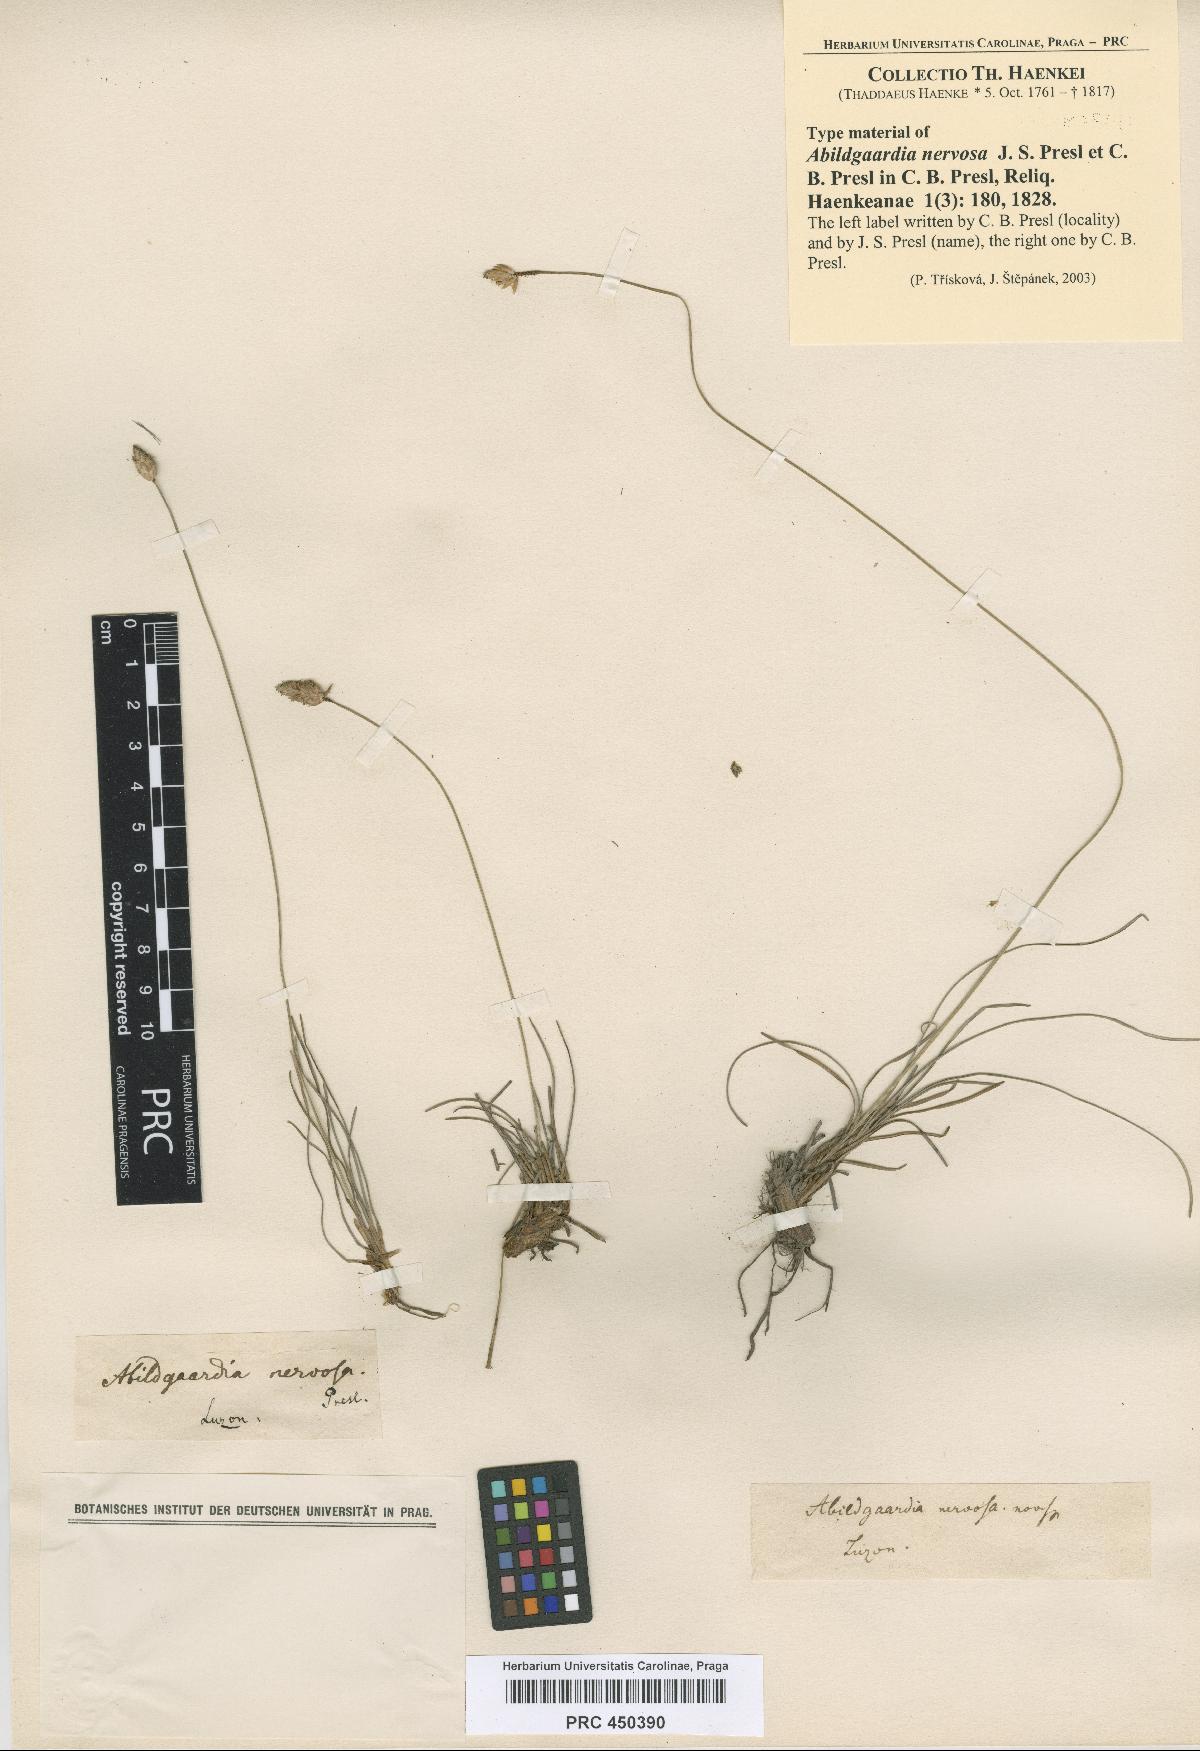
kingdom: Plantae
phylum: Tracheophyta
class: Liliopsida
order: Poales
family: Cyperaceae
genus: Fimbristylis
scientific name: Fimbristylis schoenoides
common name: Ditch fimbry
